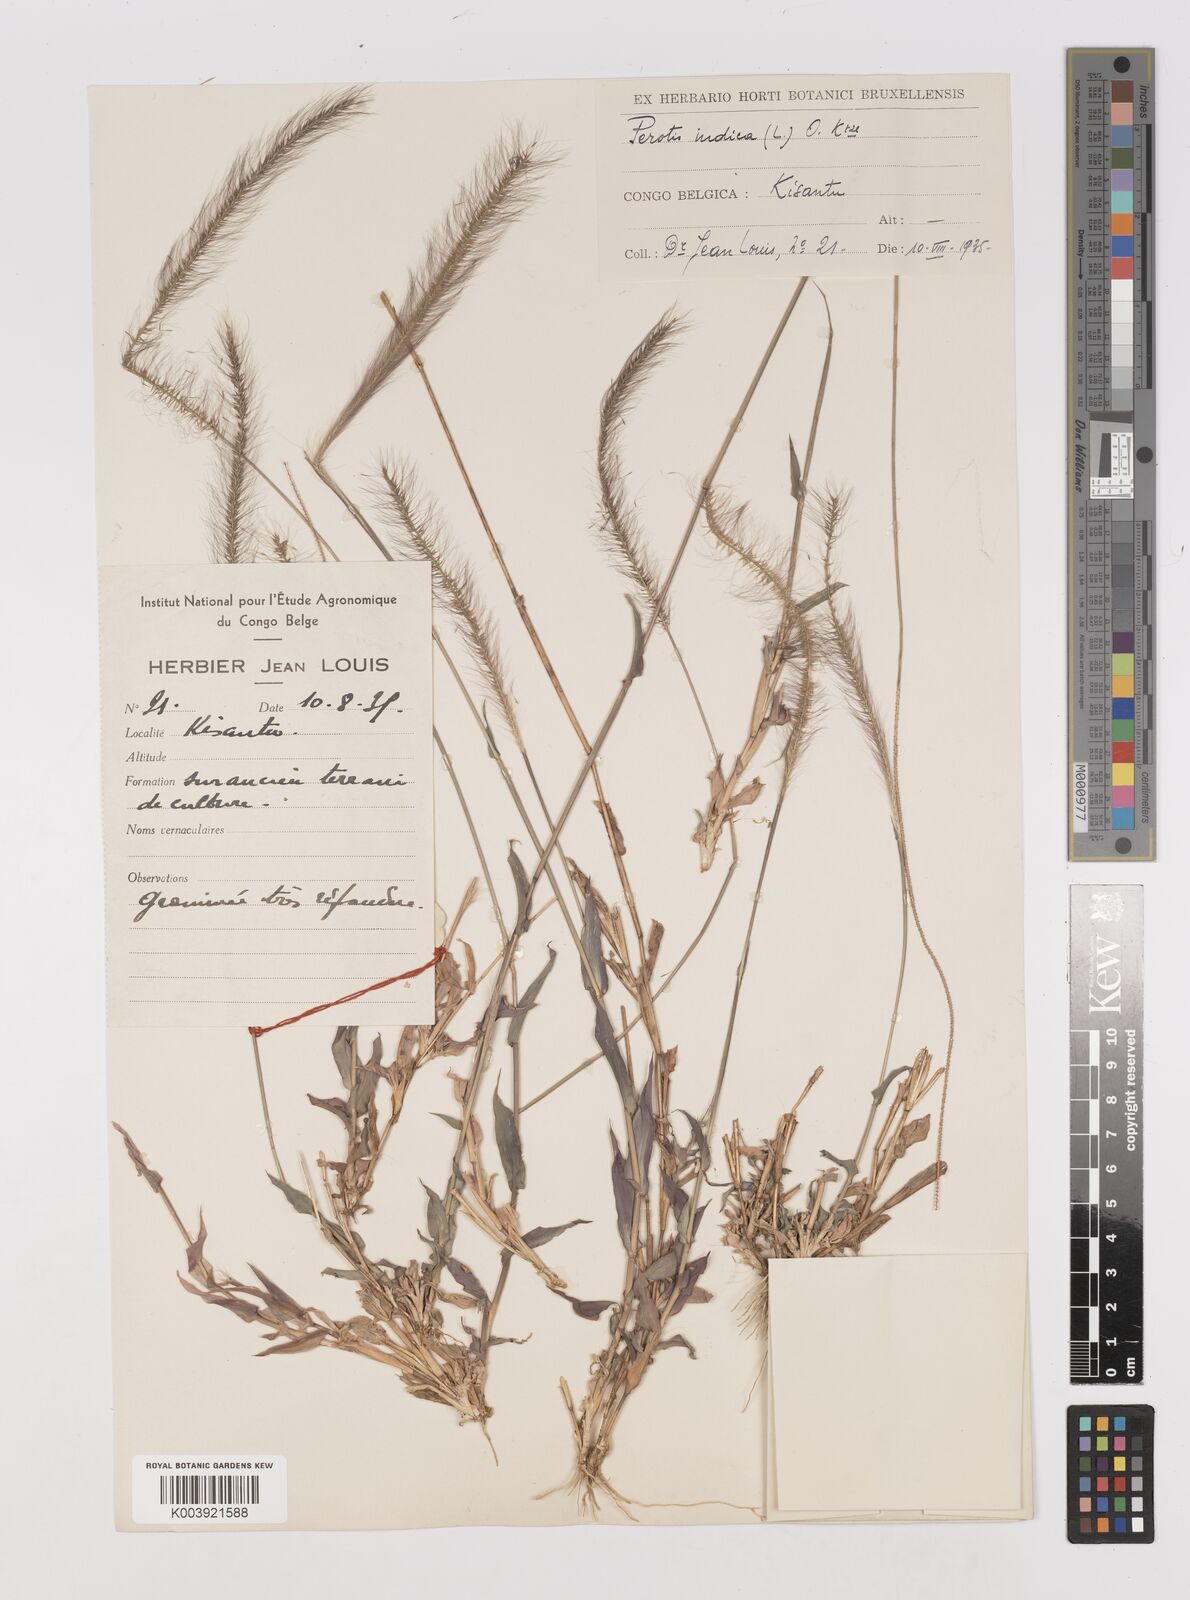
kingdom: Plantae
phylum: Tracheophyta
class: Liliopsida
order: Poales
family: Poaceae
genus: Perotis
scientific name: Perotis patens
